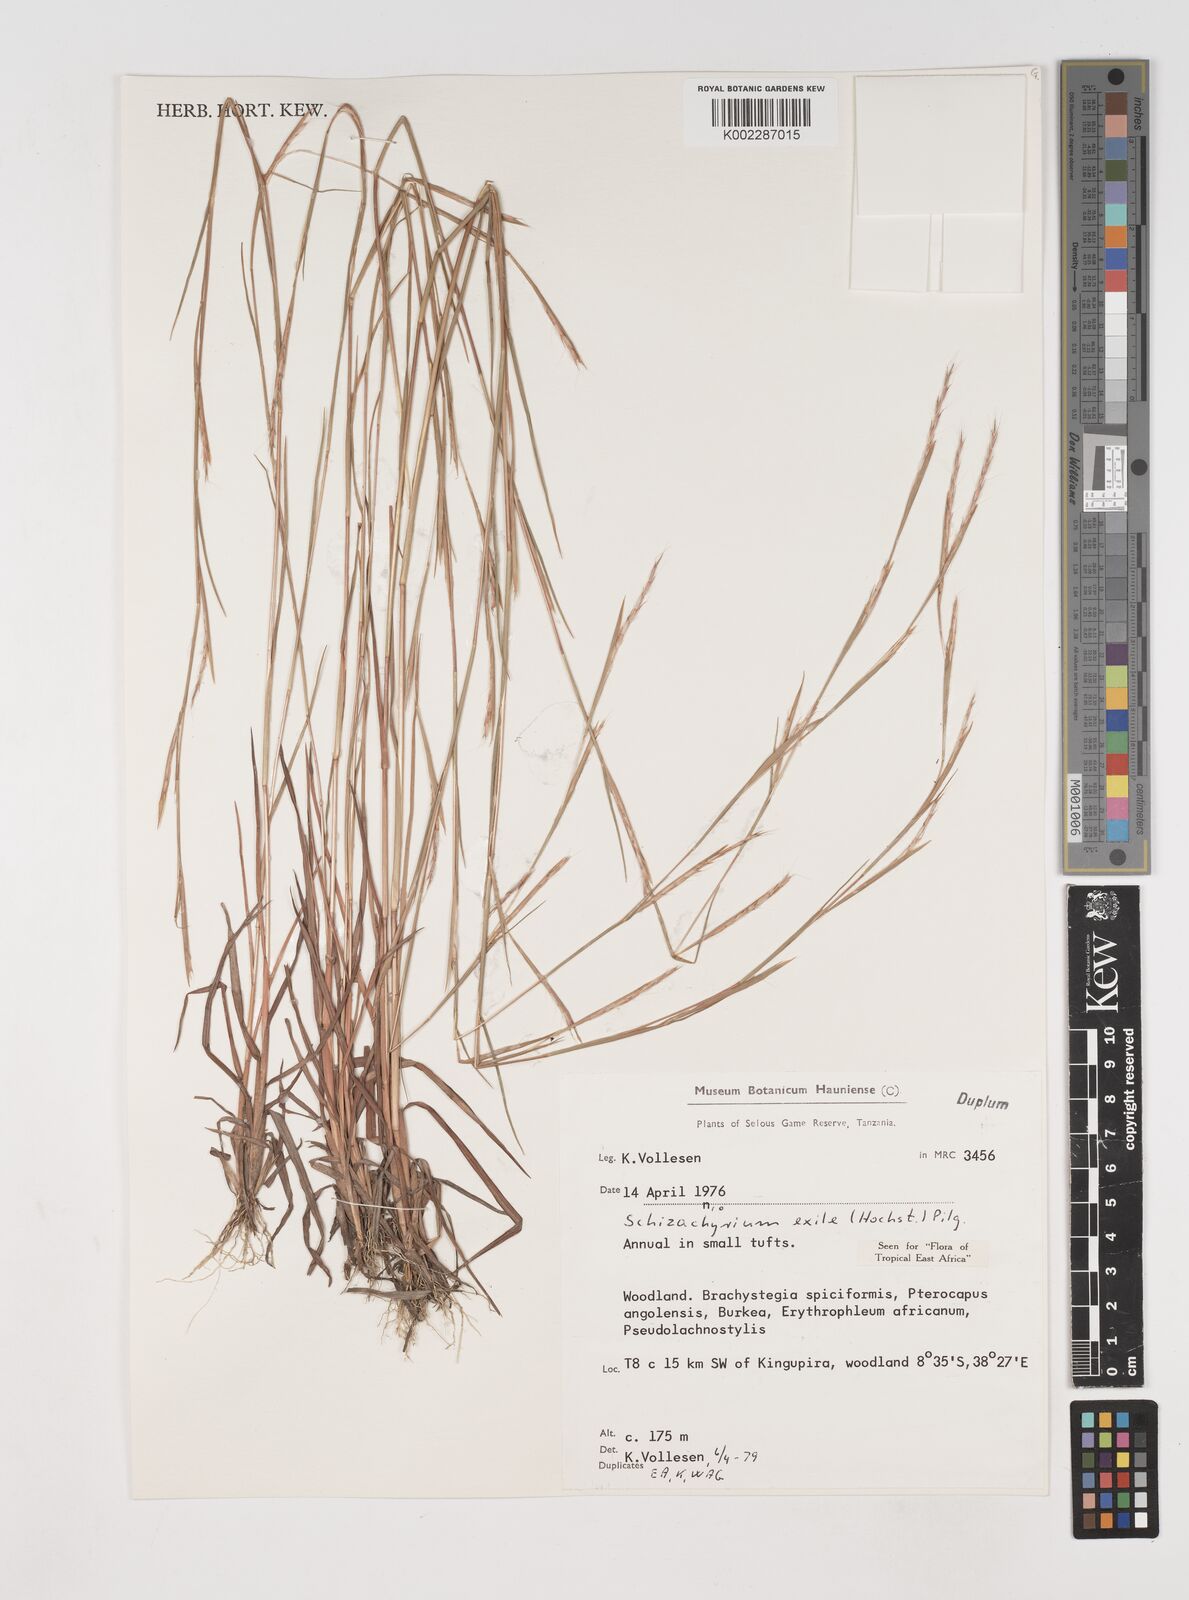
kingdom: Plantae
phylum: Tracheophyta
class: Liliopsida
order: Poales
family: Poaceae
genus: Schizachyrium
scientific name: Schizachyrium exile
